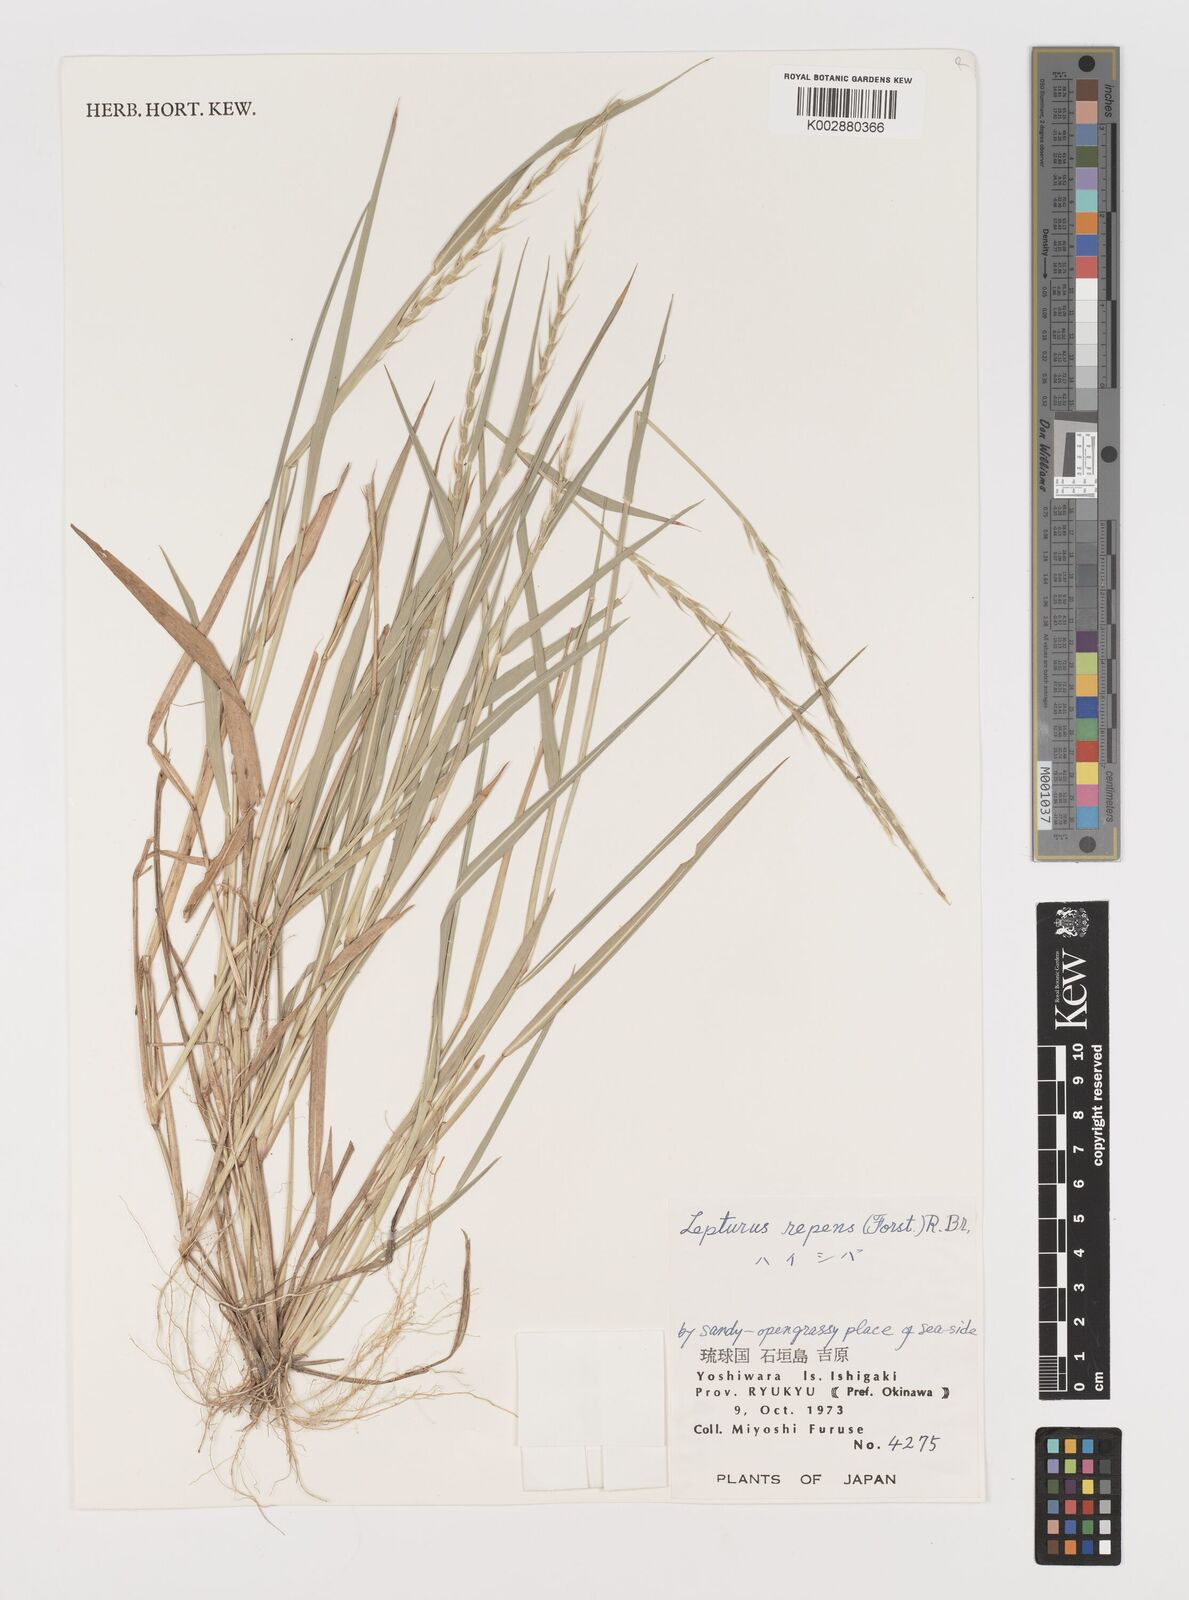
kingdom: Plantae
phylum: Tracheophyta
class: Liliopsida
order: Poales
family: Poaceae
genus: Lepturus
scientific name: Lepturus repens
